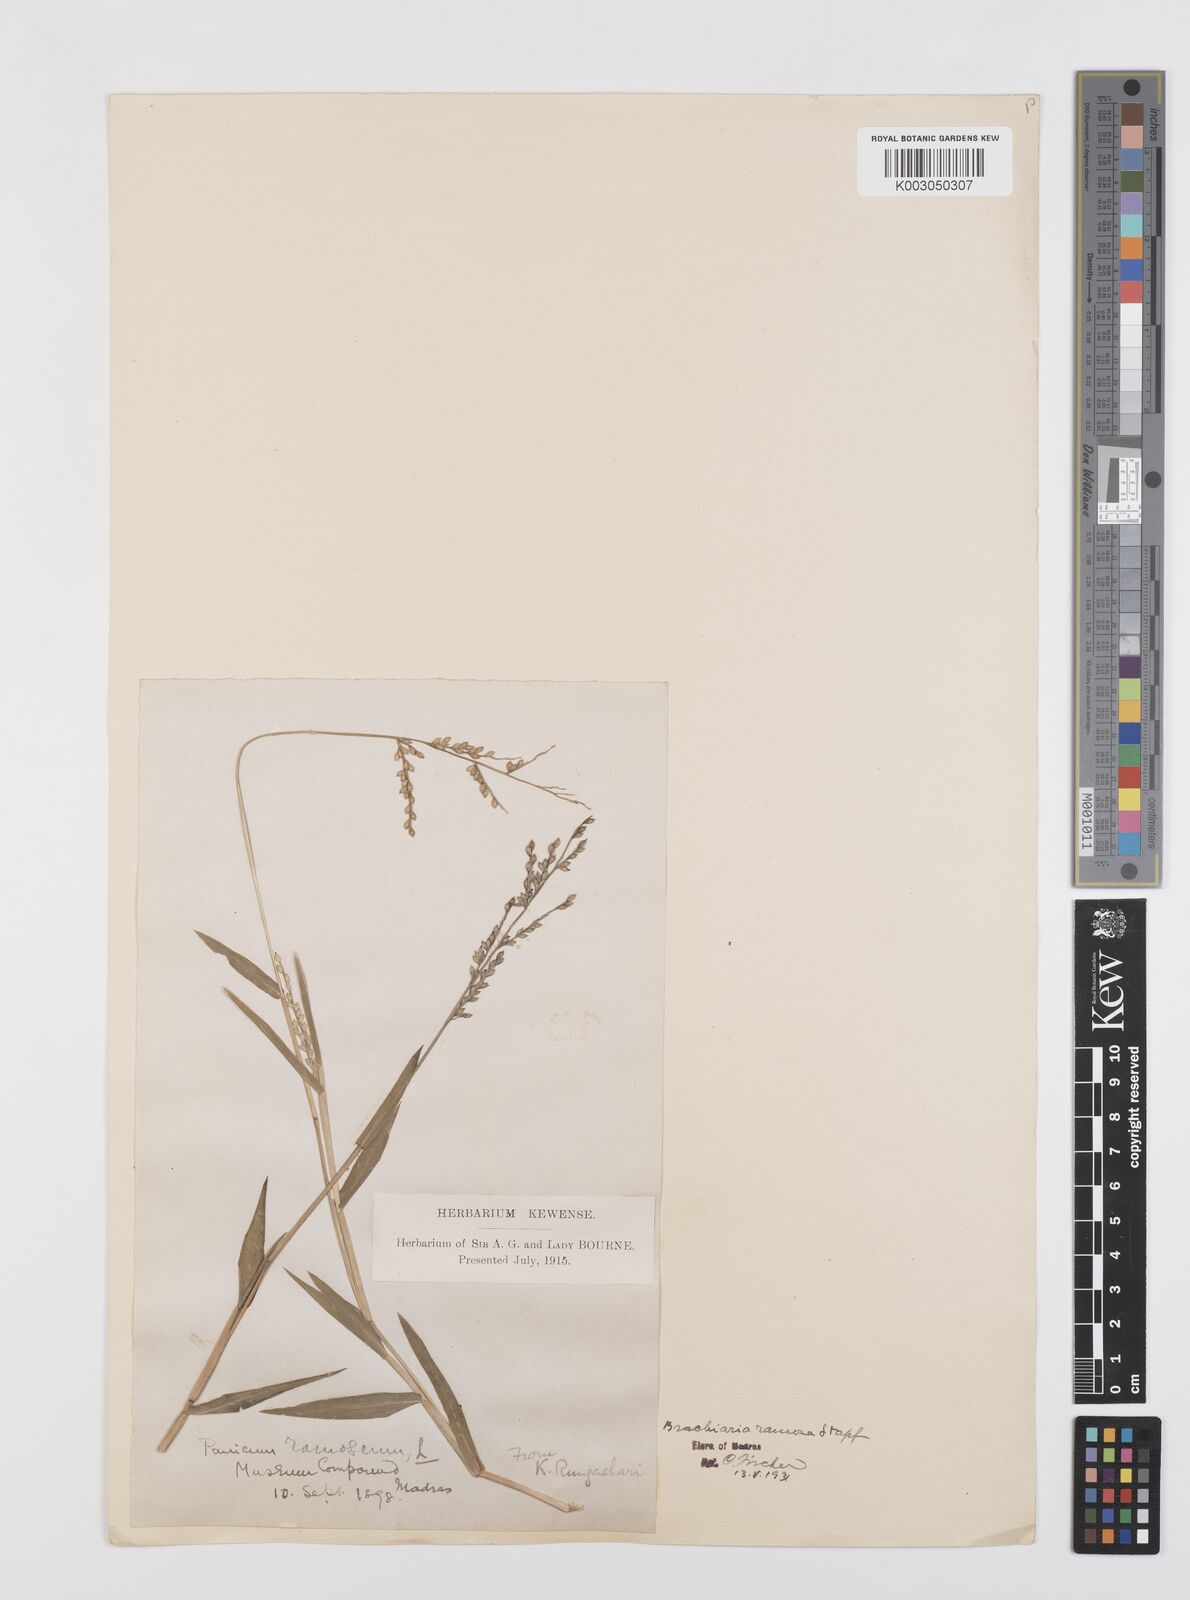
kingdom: Plantae
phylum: Tracheophyta
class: Liliopsida
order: Poales
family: Poaceae
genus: Urochloa
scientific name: Urochloa ramosa
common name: Browntop millet
